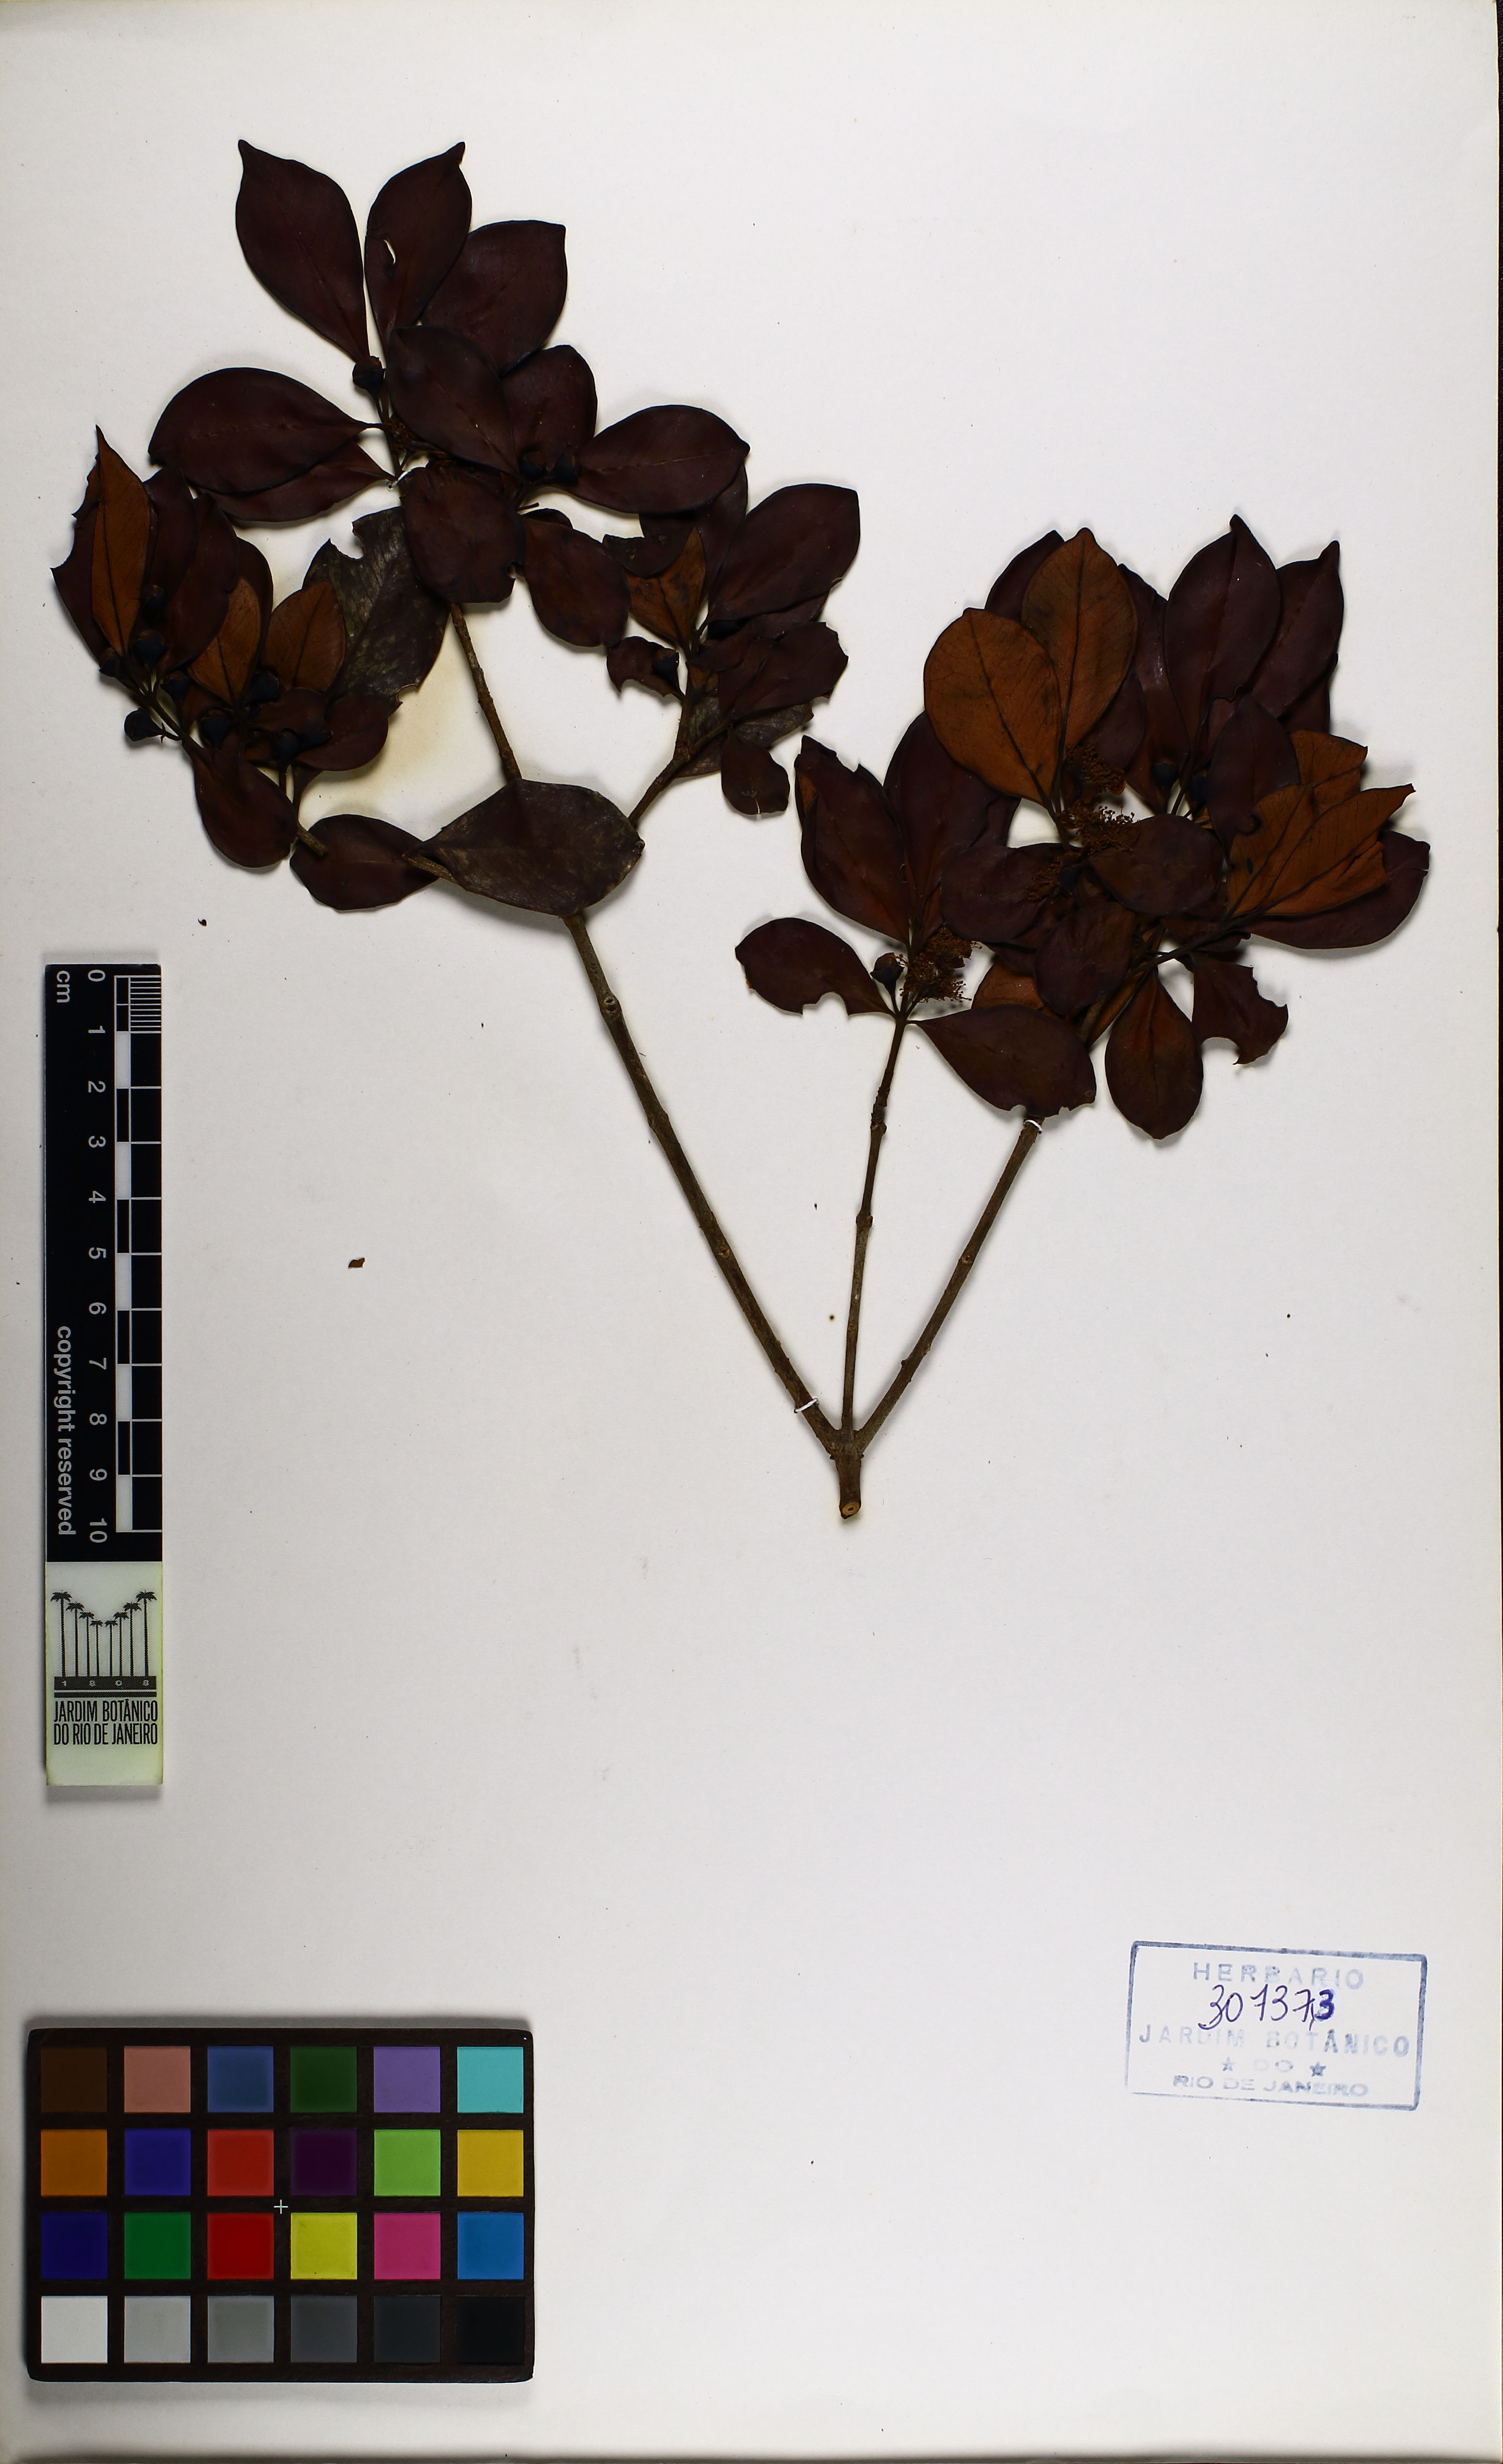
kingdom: Plantae
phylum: Tracheophyta
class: Magnoliopsida
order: Myrtales
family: Myrtaceae
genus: Psidium
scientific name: Psidium spathulatum
